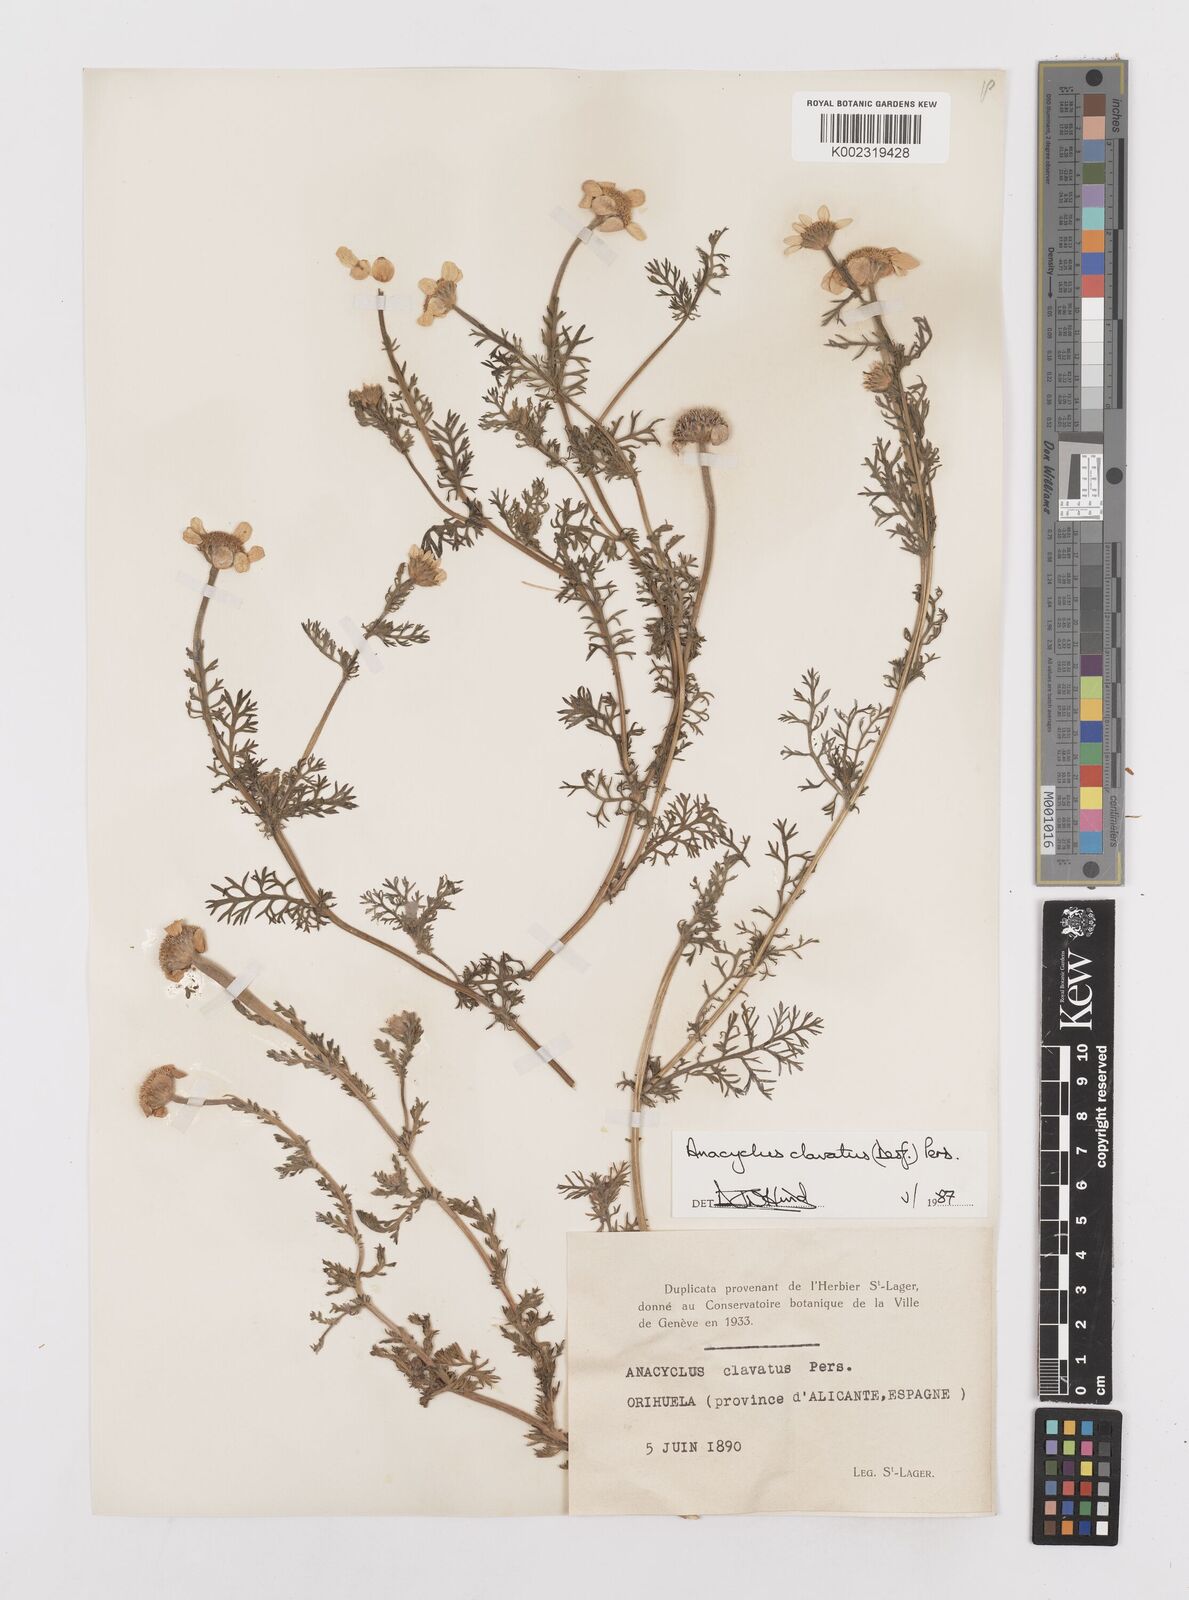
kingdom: Plantae
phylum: Tracheophyta
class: Magnoliopsida
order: Asterales
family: Asteraceae
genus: Anacyclus
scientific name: Anacyclus clavatus
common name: Whitebuttons
